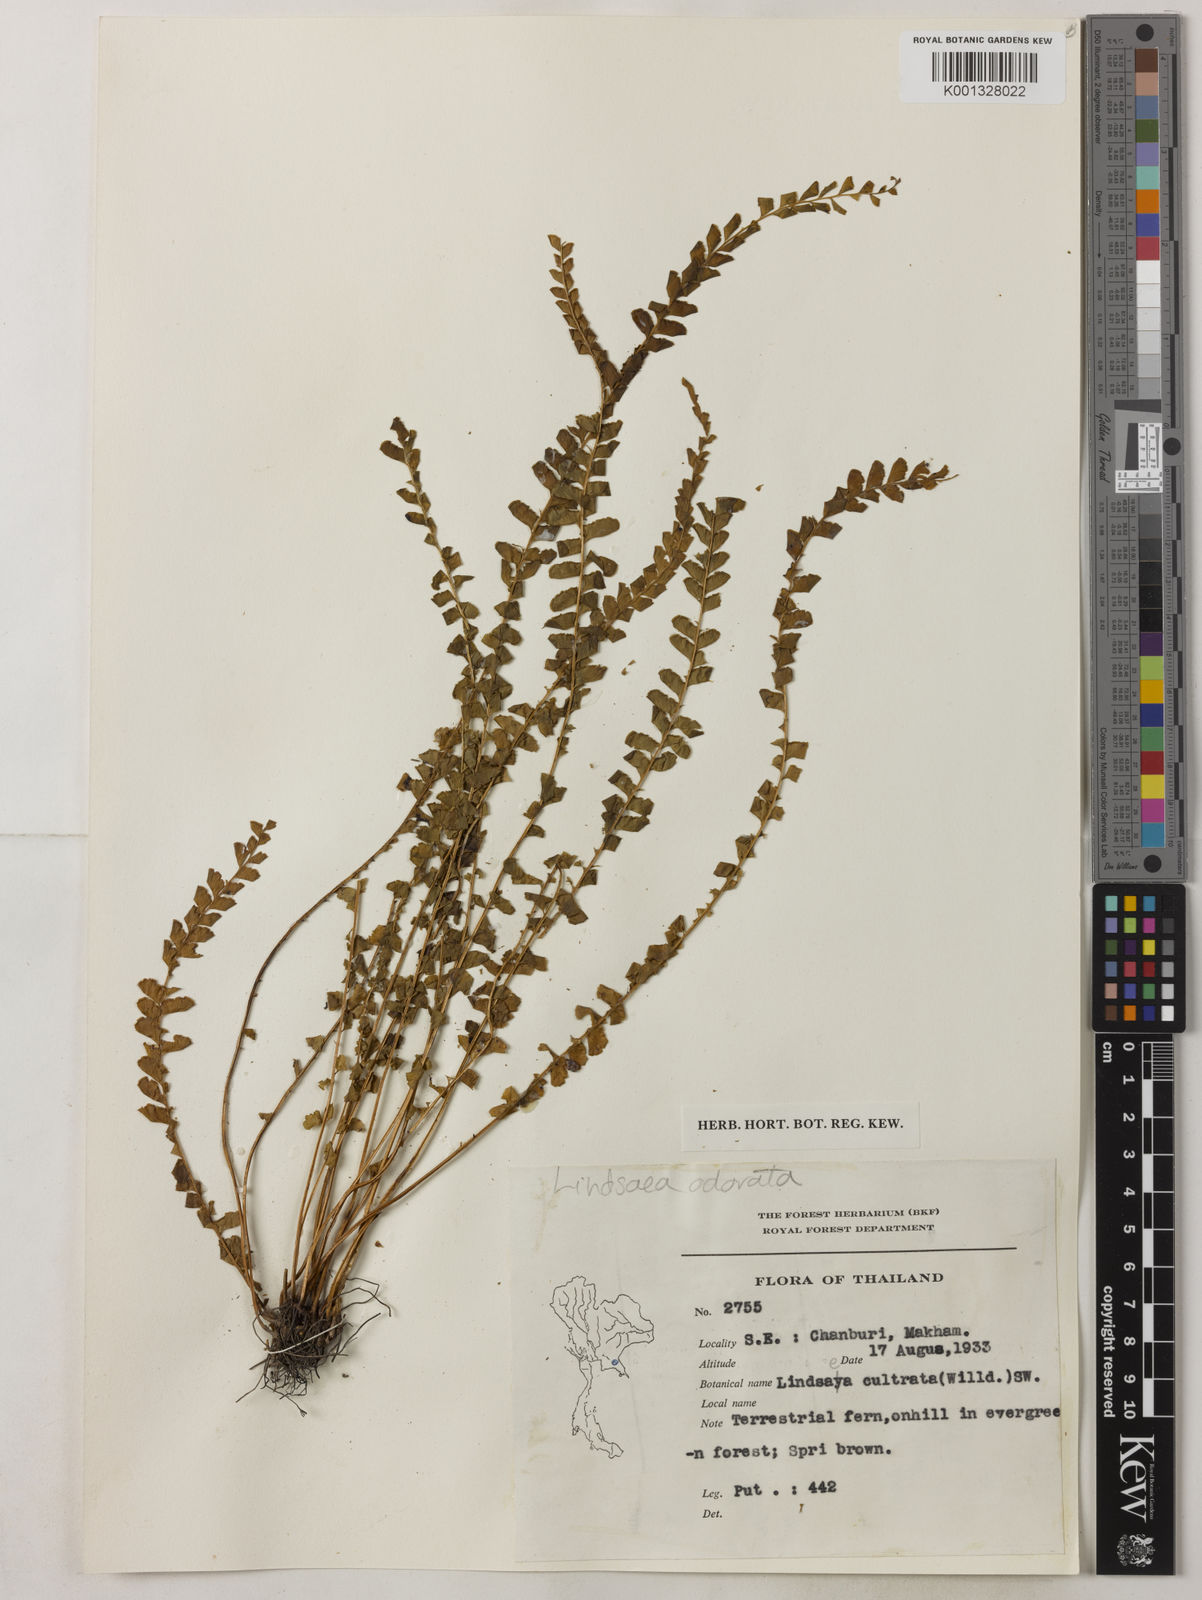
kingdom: Plantae
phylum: Tracheophyta
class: Polypodiopsida
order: Polypodiales
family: Lindsaeaceae
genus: Osmolindsaea
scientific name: Osmolindsaea odorata
